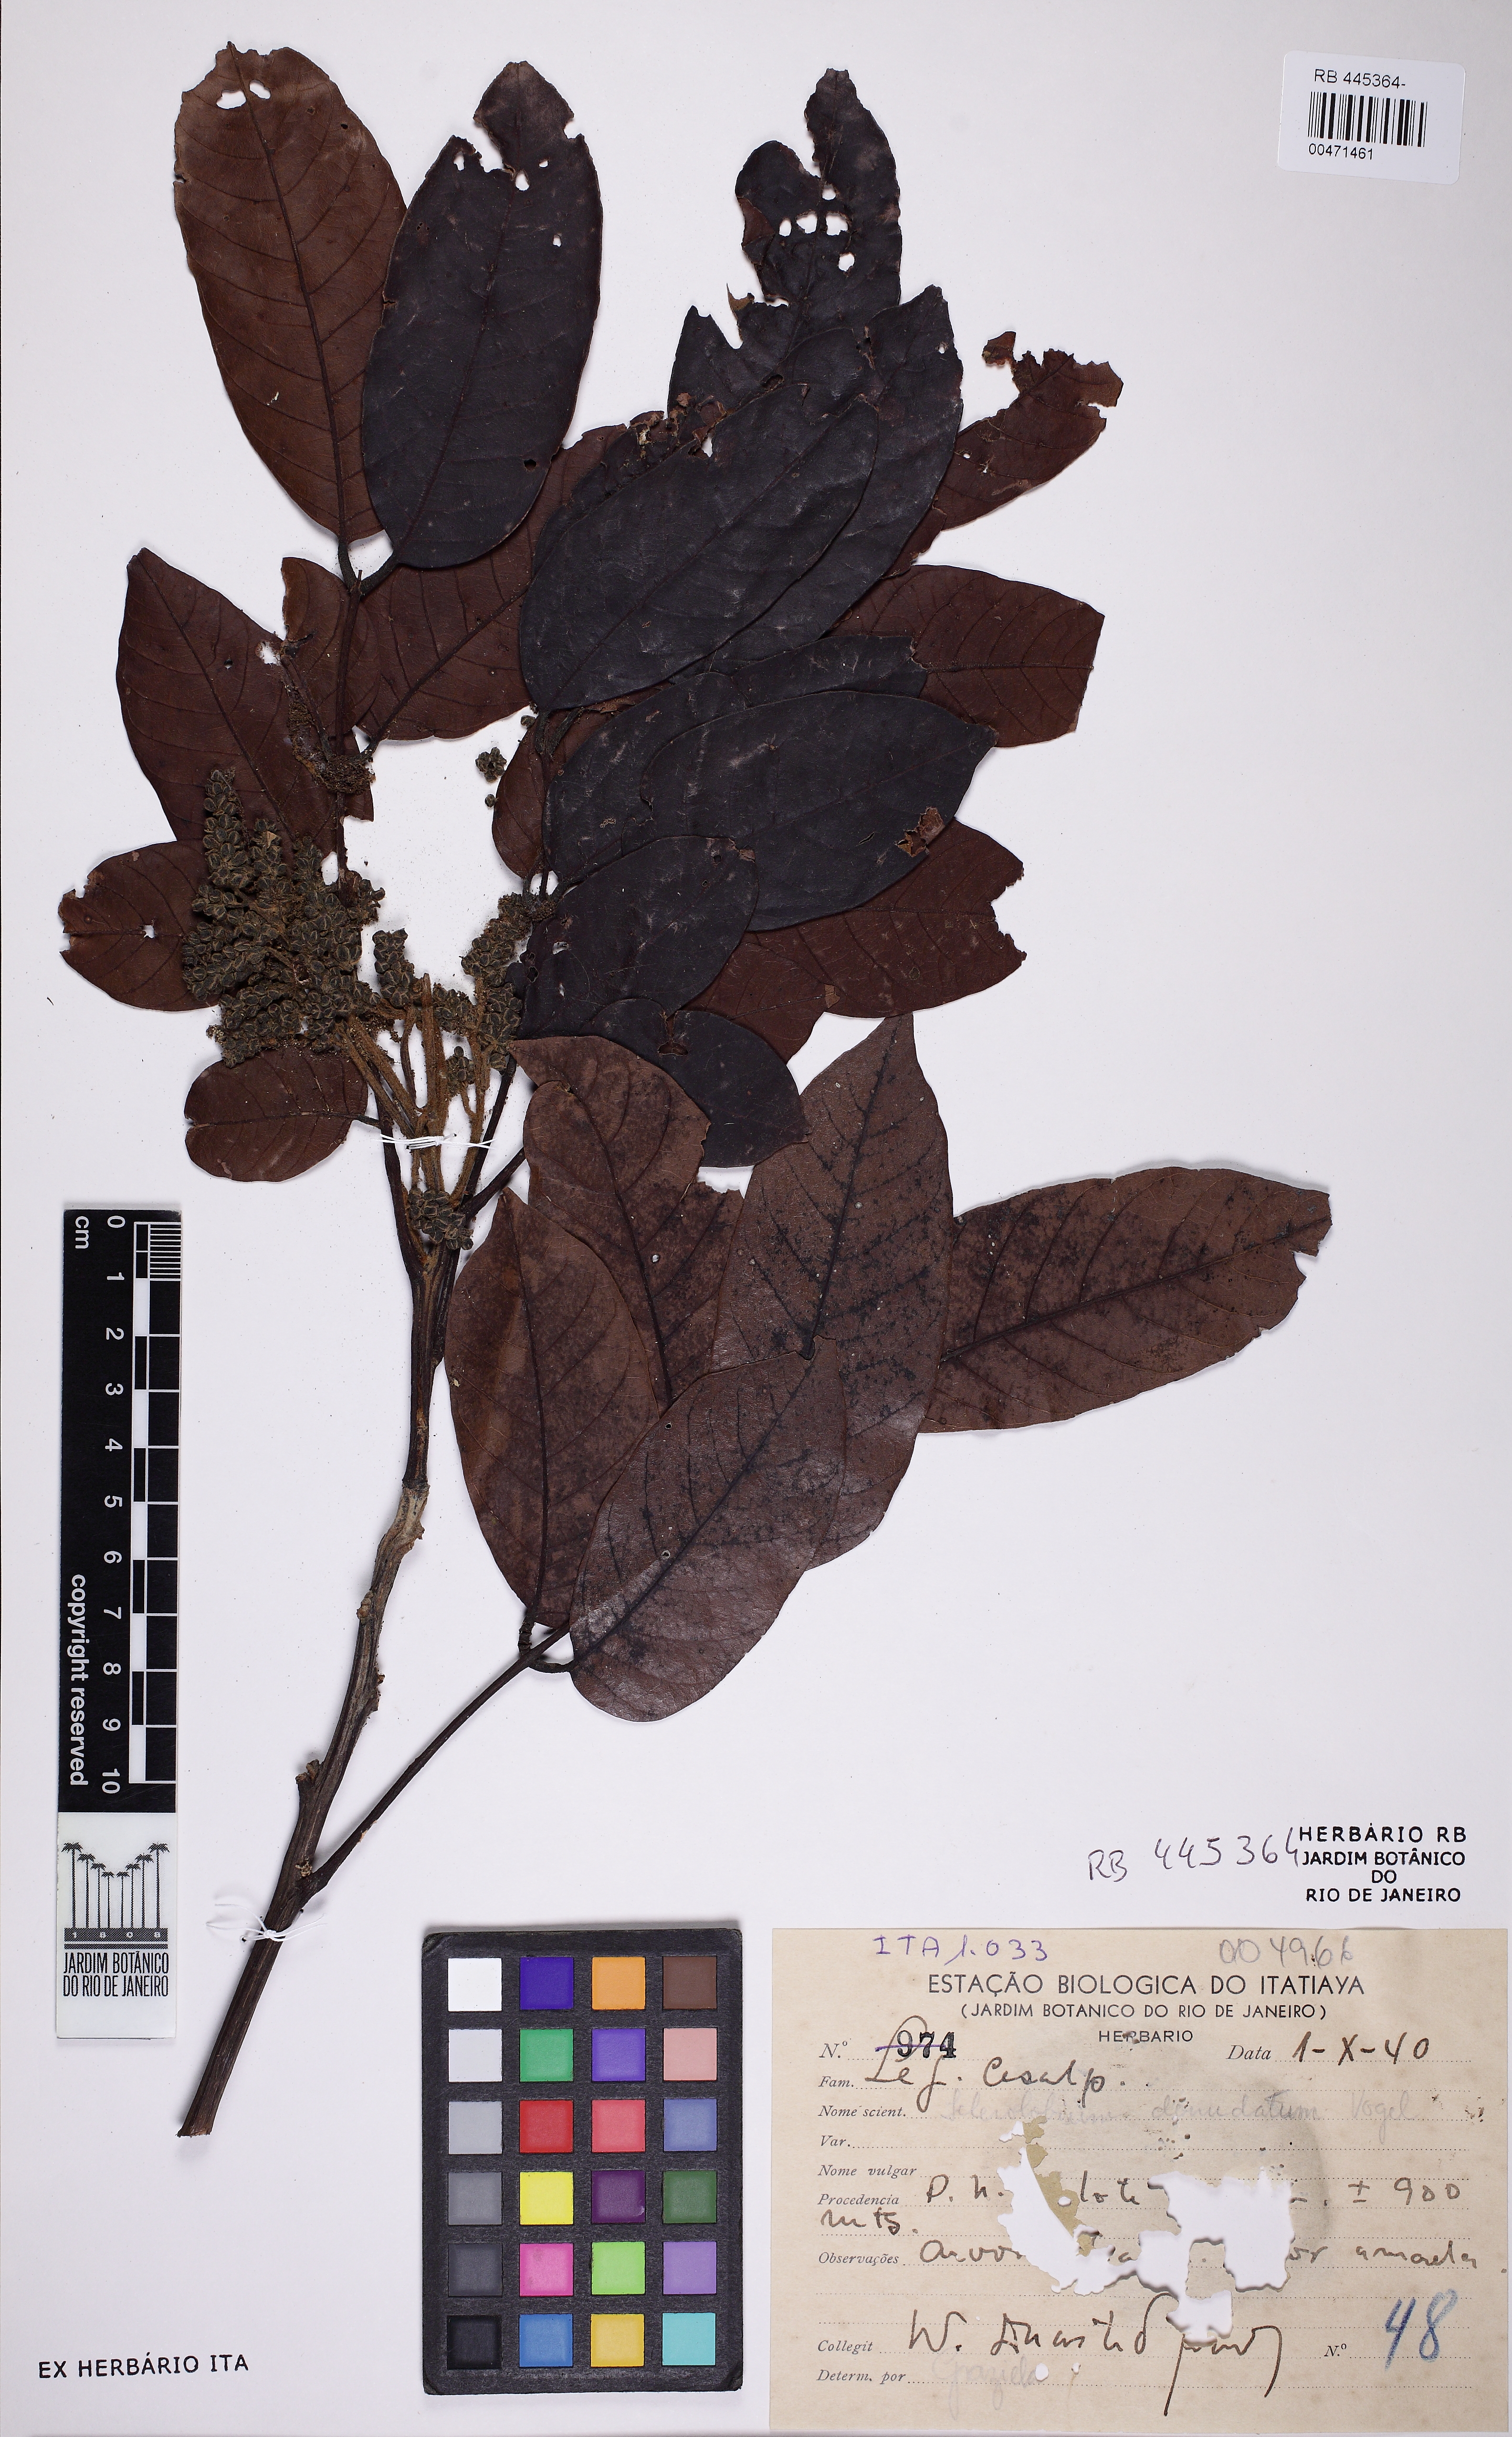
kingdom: Plantae
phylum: Tracheophyta
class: Magnoliopsida
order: Fabales
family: Fabaceae
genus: Tachigali
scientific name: Tachigali duckei
